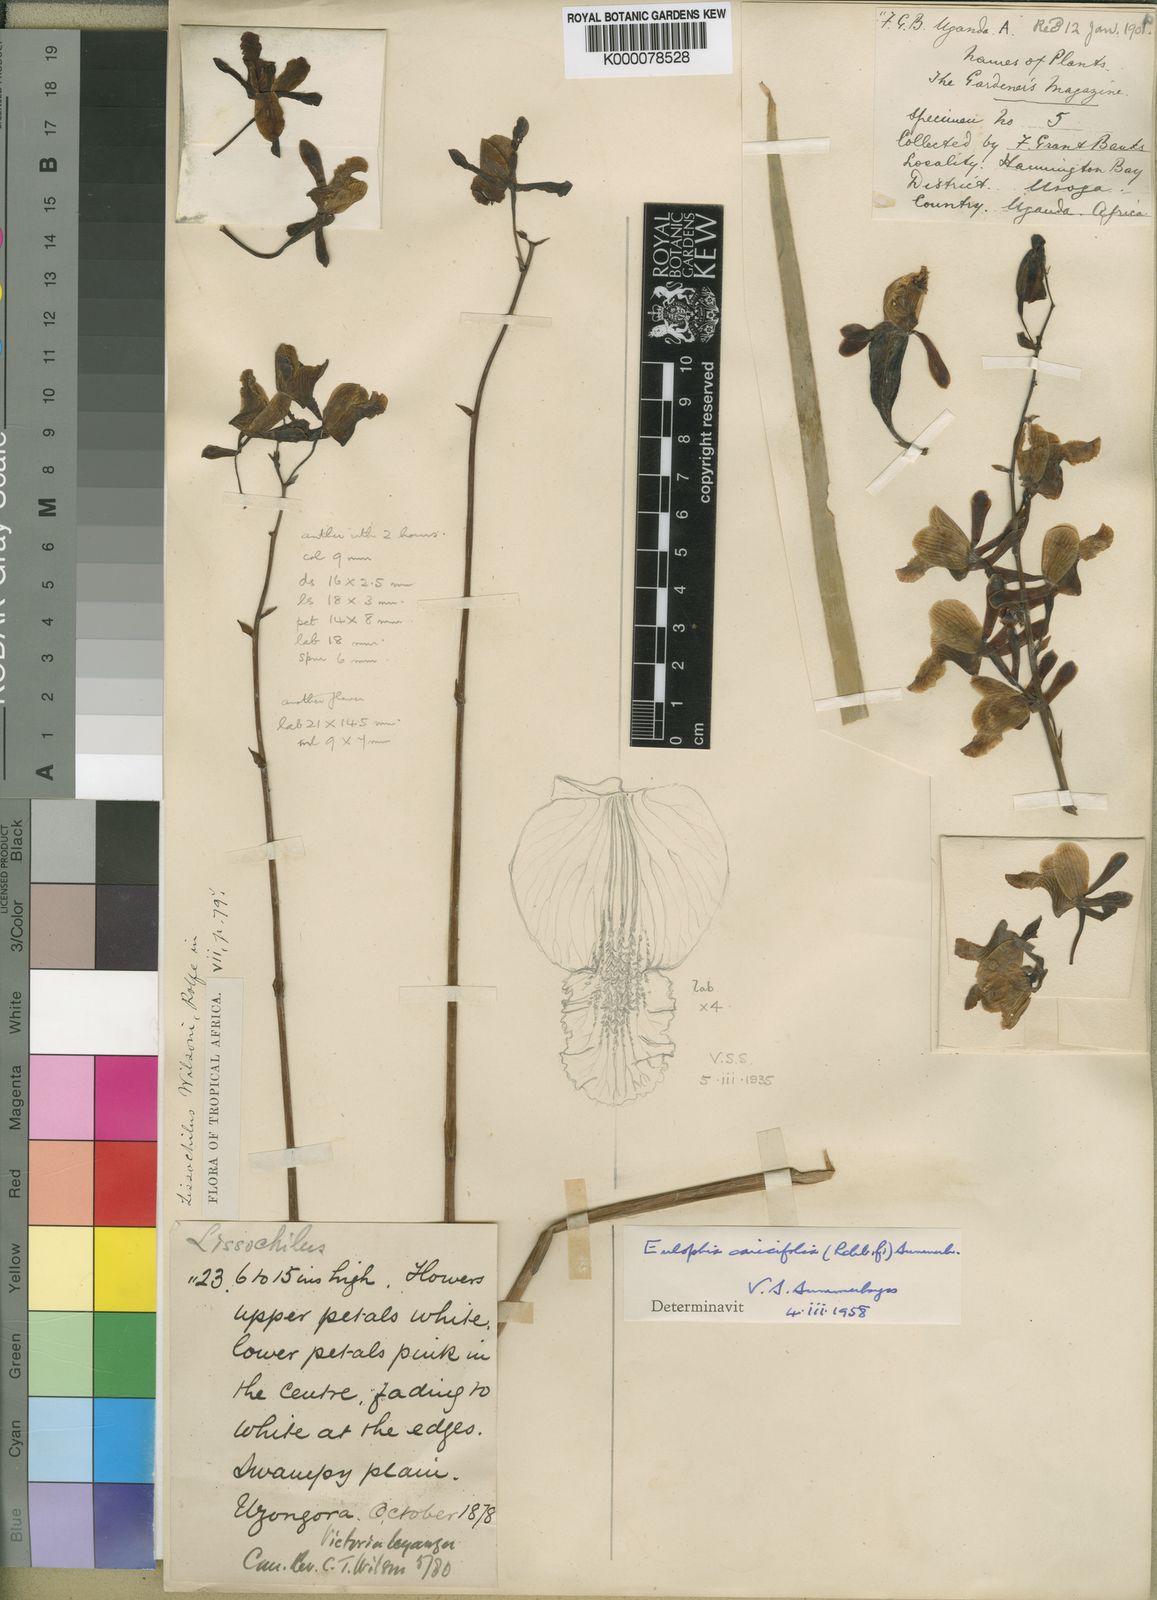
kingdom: Plantae
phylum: Tracheophyta
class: Liliopsida
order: Asparagales
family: Orchidaceae
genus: Eulophia
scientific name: Eulophia caricifolia
